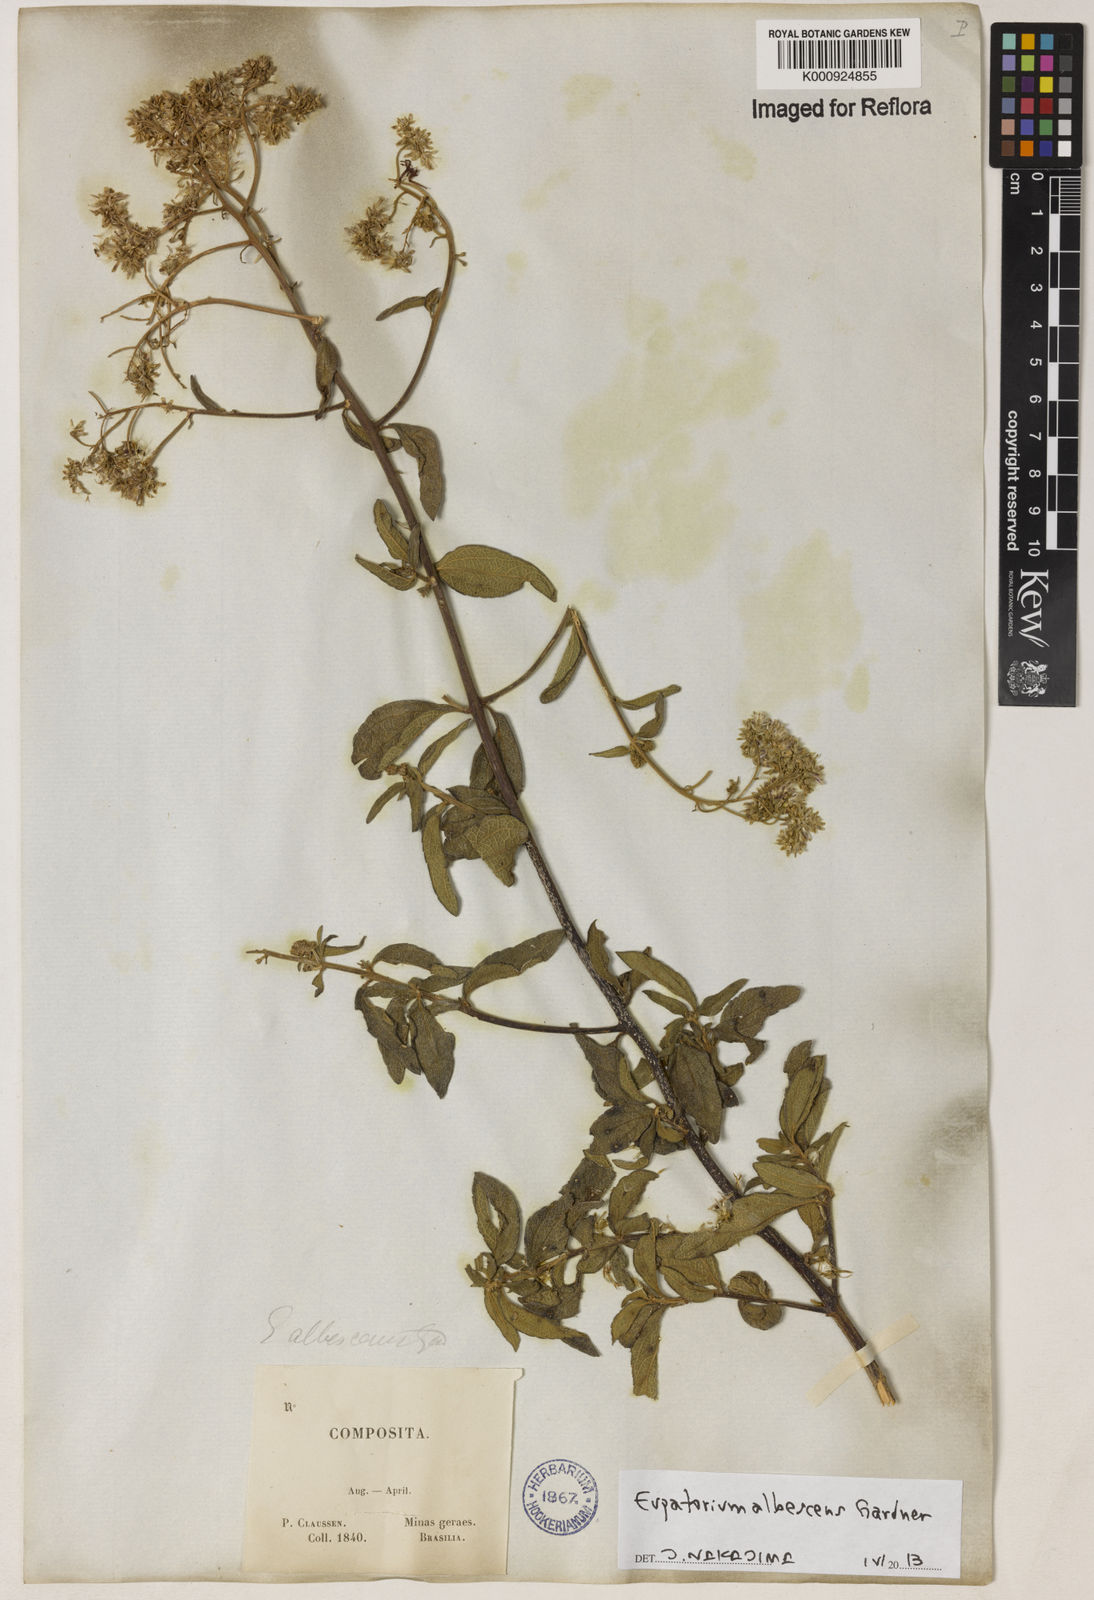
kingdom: Plantae
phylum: Tracheophyta
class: Magnoliopsida
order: Asterales
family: Asteraceae
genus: Austroeupatorium
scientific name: Austroeupatorium albescens
